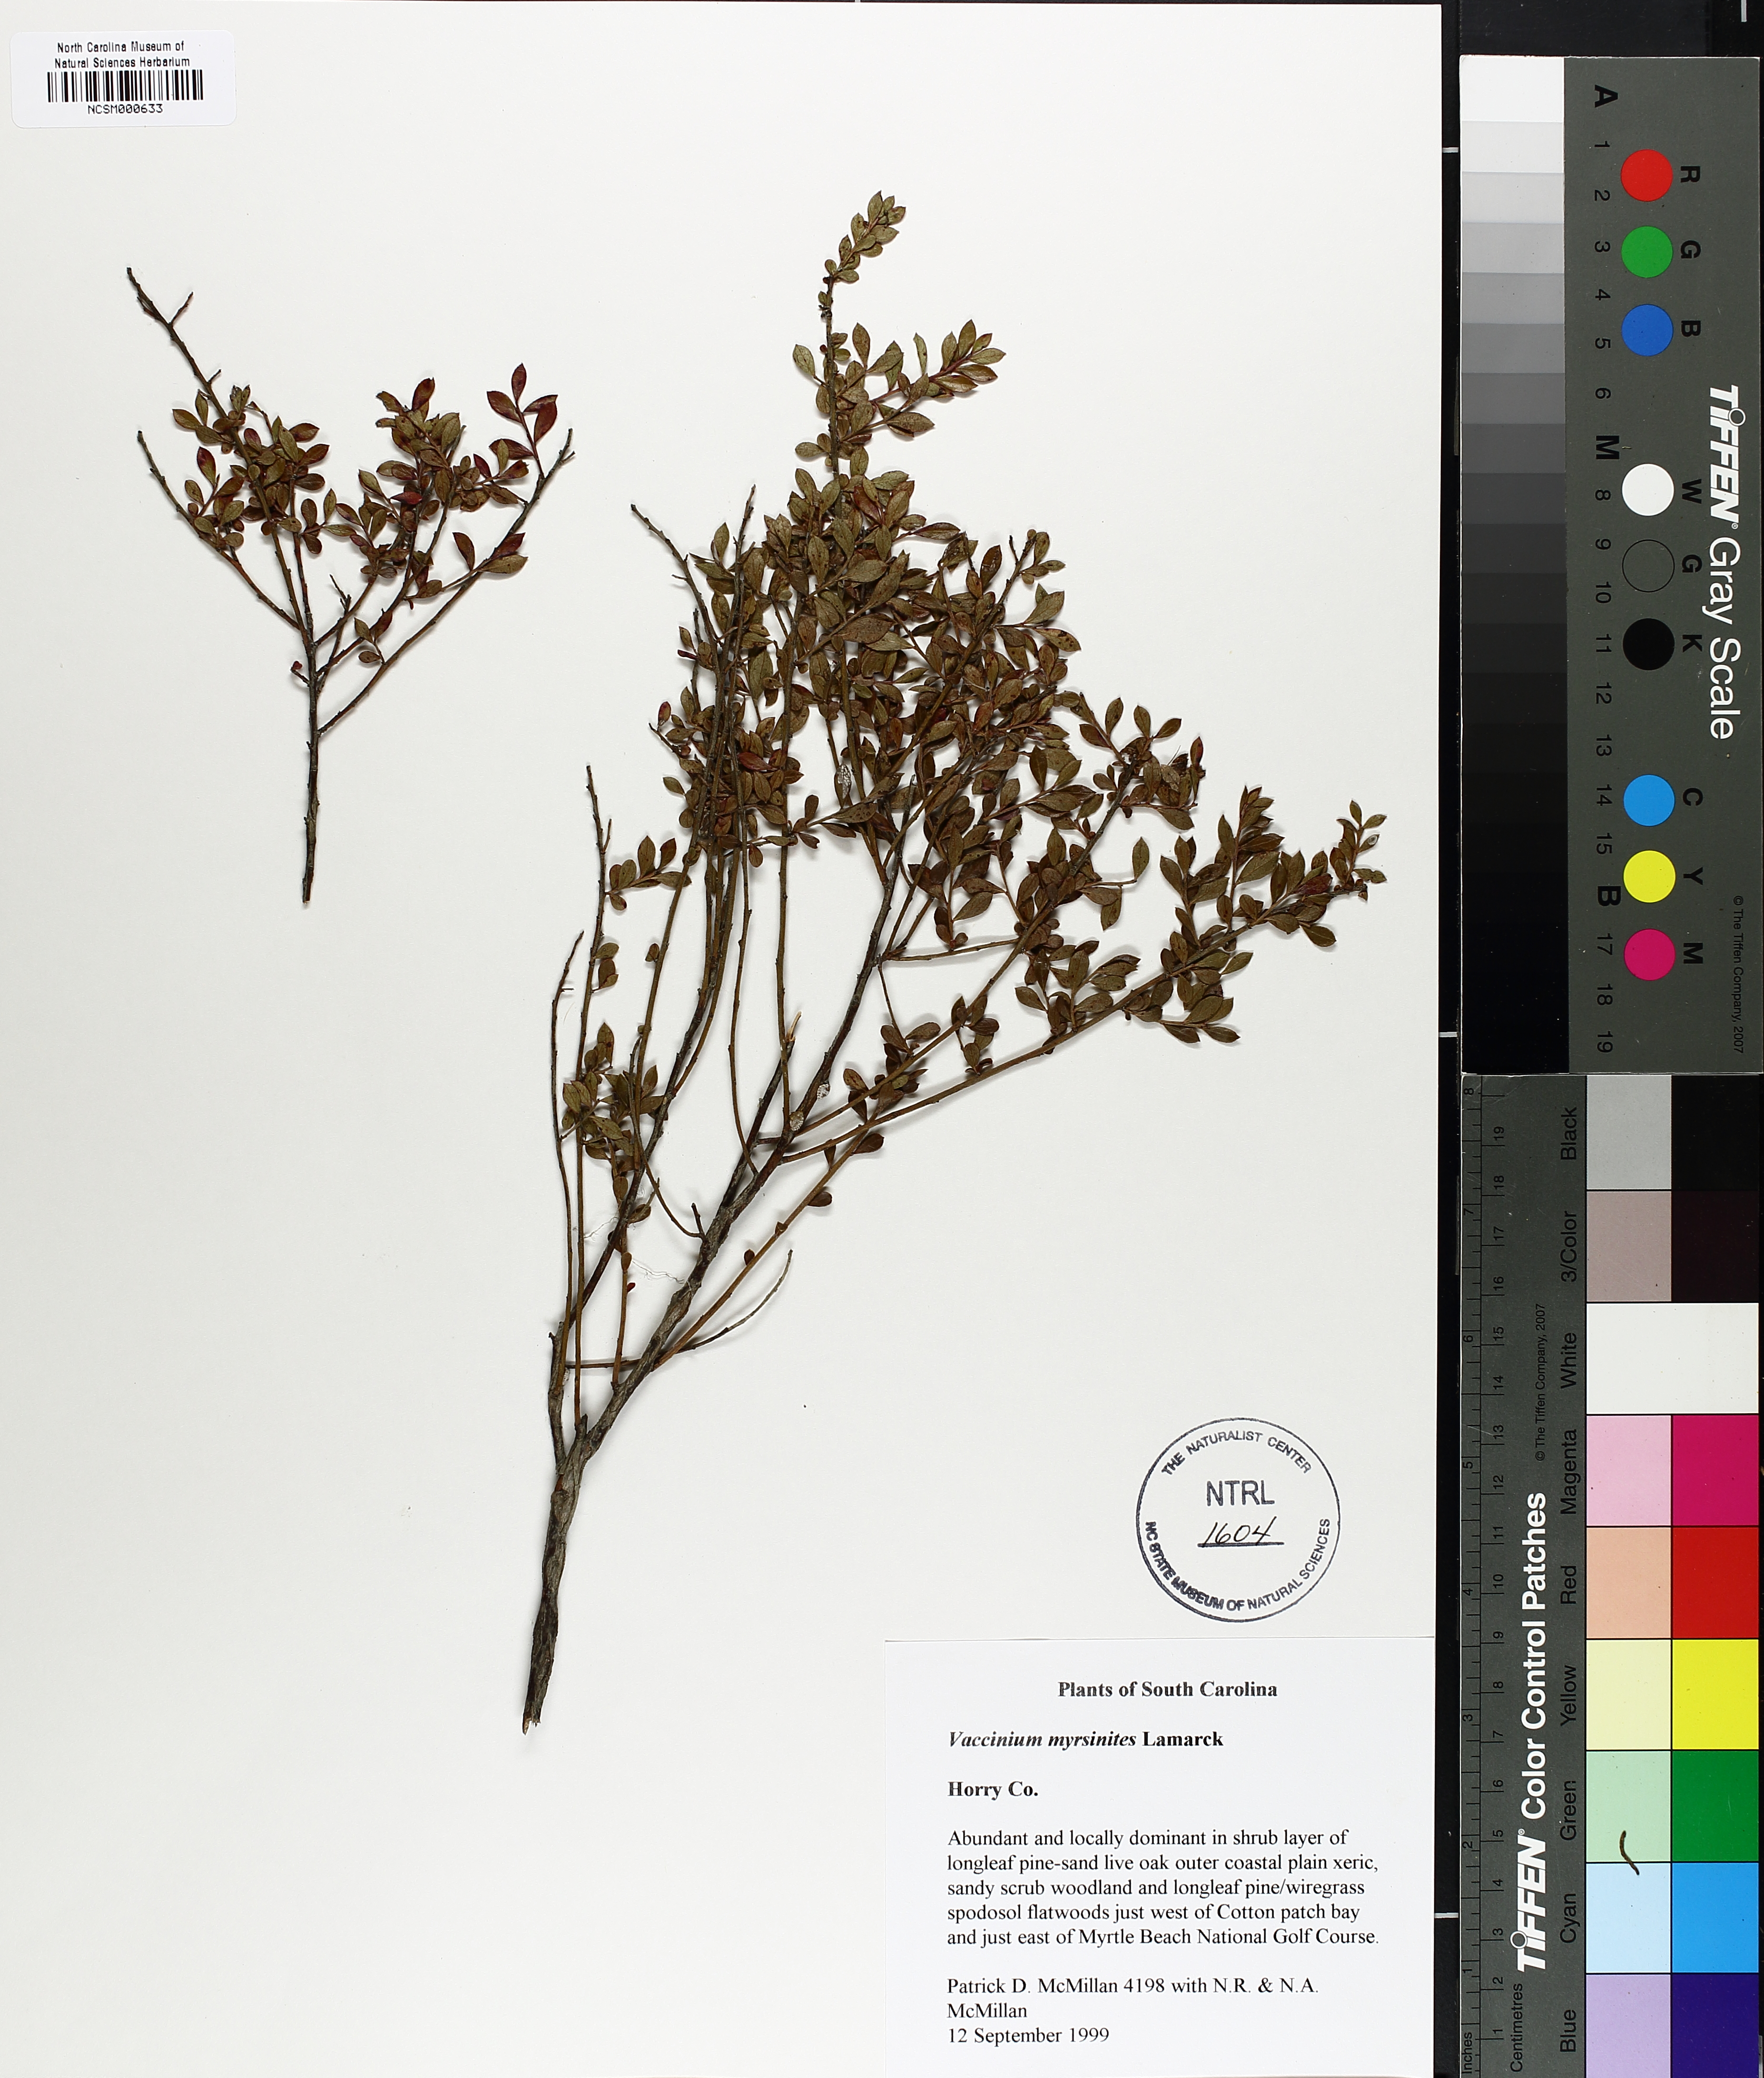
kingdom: Plantae
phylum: Tracheophyta
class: Magnoliopsida
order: Ericales
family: Ericaceae
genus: Vaccinium
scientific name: Vaccinium myrsinites
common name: Evergreen blueberry
